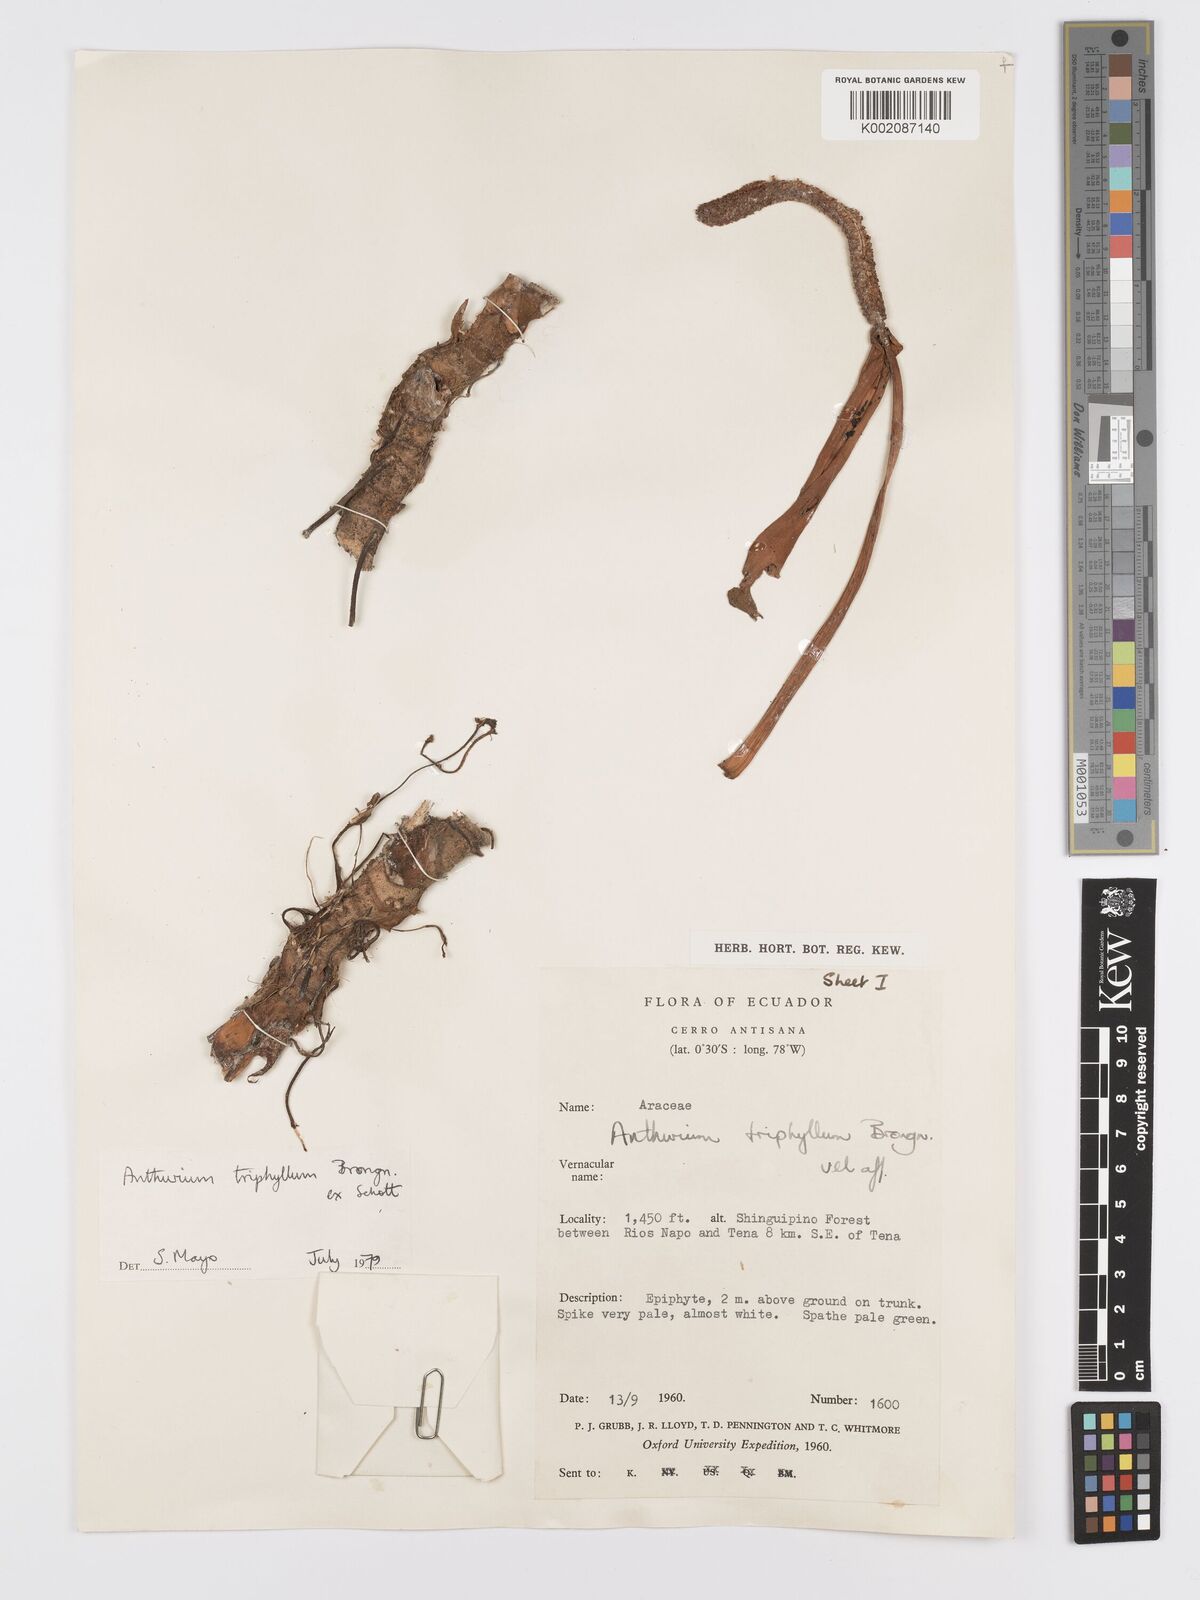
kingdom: Plantae
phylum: Tracheophyta
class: Liliopsida
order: Alismatales
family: Araceae
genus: Anthurium
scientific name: Anthurium triphyllum
